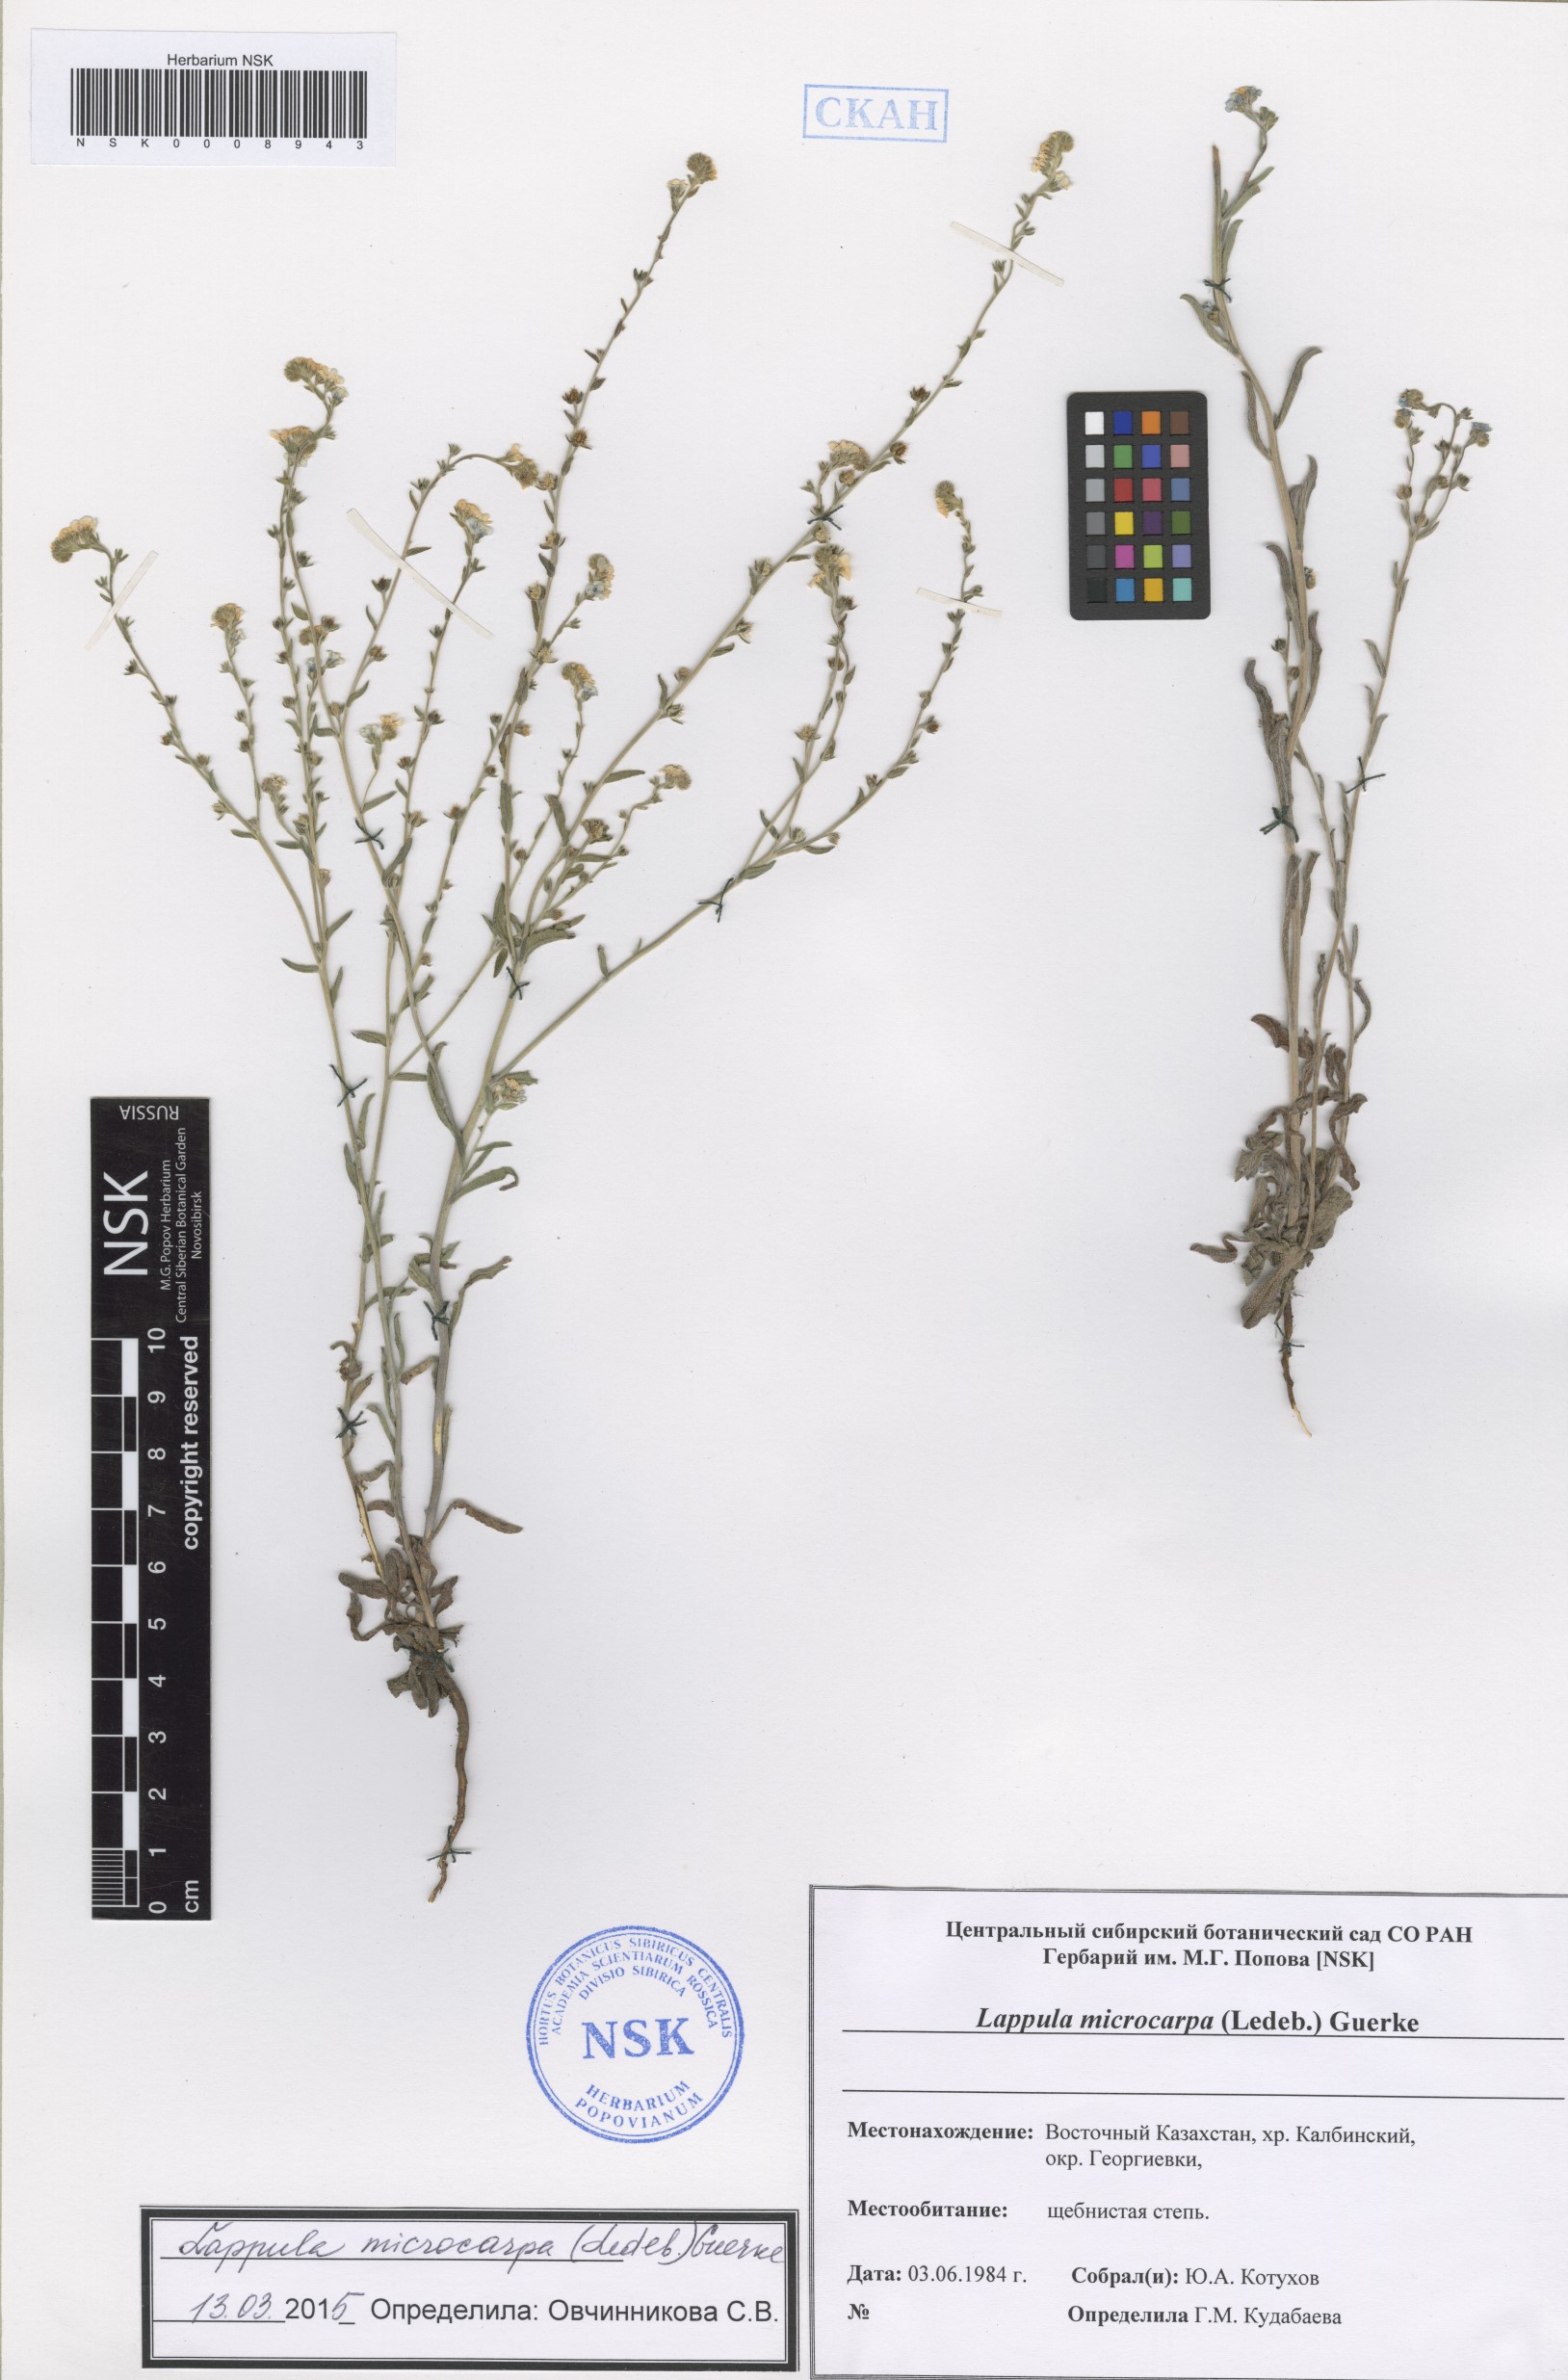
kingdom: Plantae
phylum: Tracheophyta
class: Magnoliopsida
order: Boraginales
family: Boraginaceae
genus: Lappula
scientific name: Lappula microcarpa
